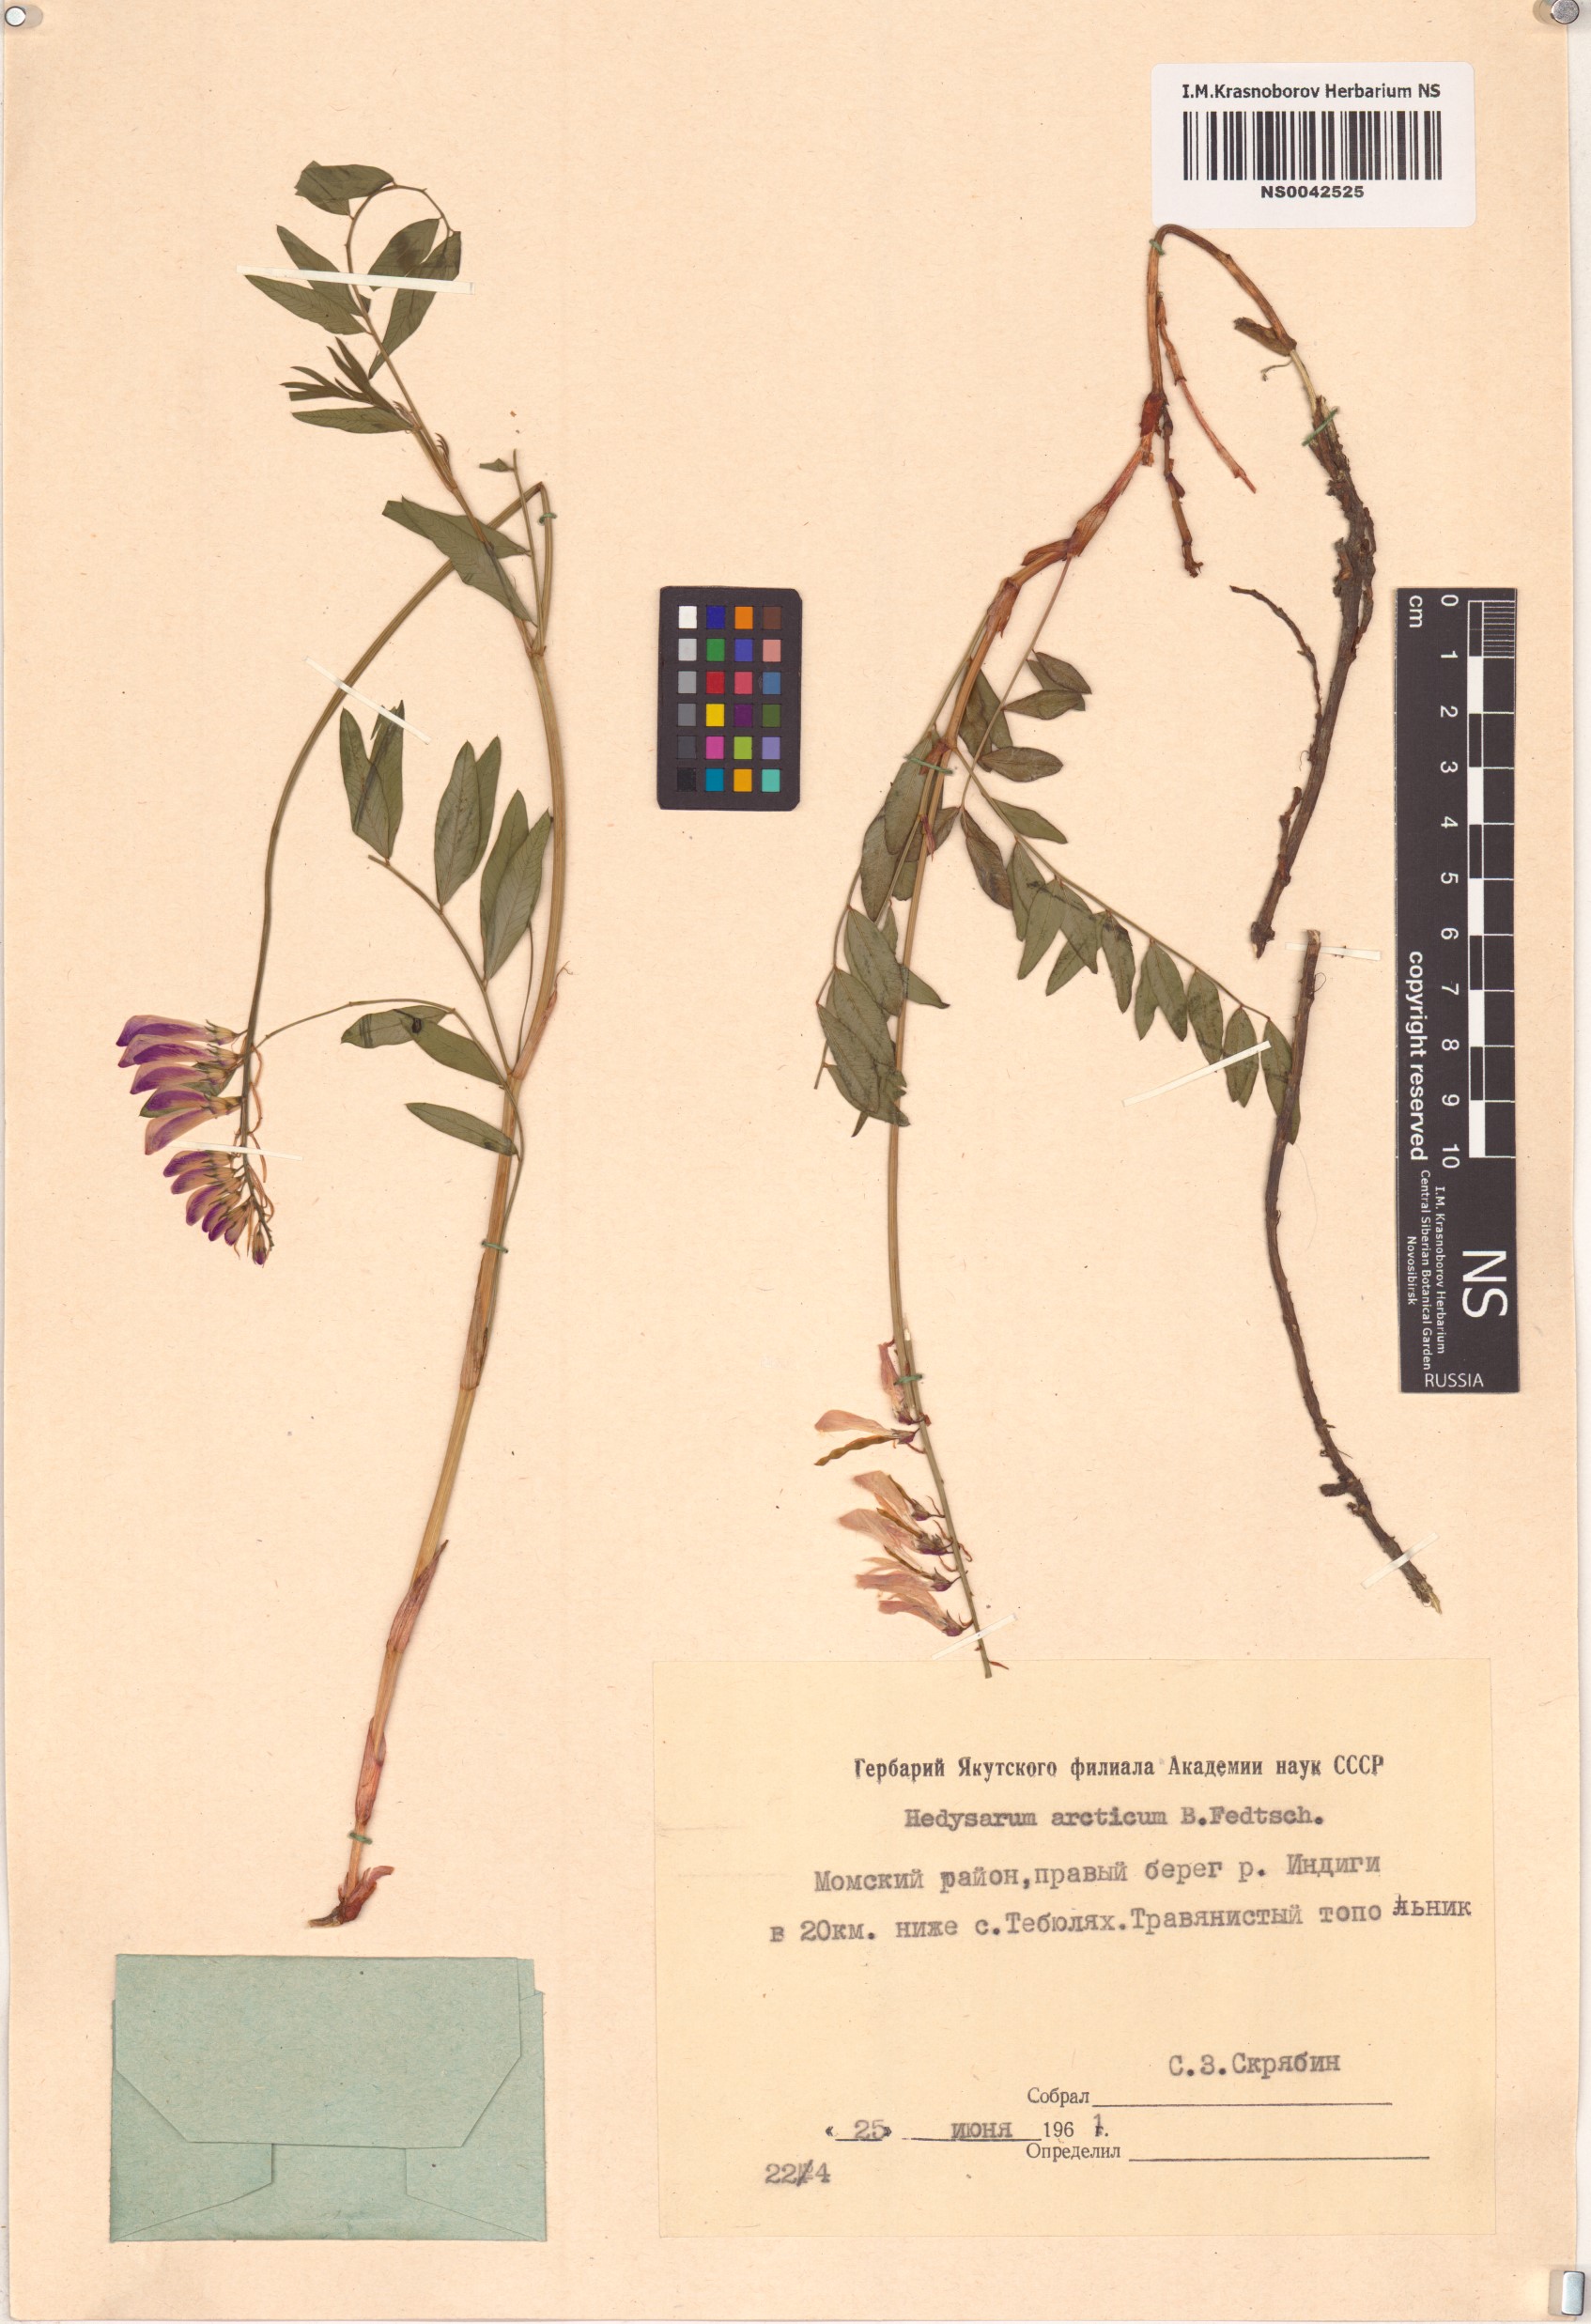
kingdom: Plantae
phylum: Tracheophyta
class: Magnoliopsida
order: Fabales
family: Fabaceae
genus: Hedysarum
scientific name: Hedysarum hedysaroides
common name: Alpine french-honeysuckle
